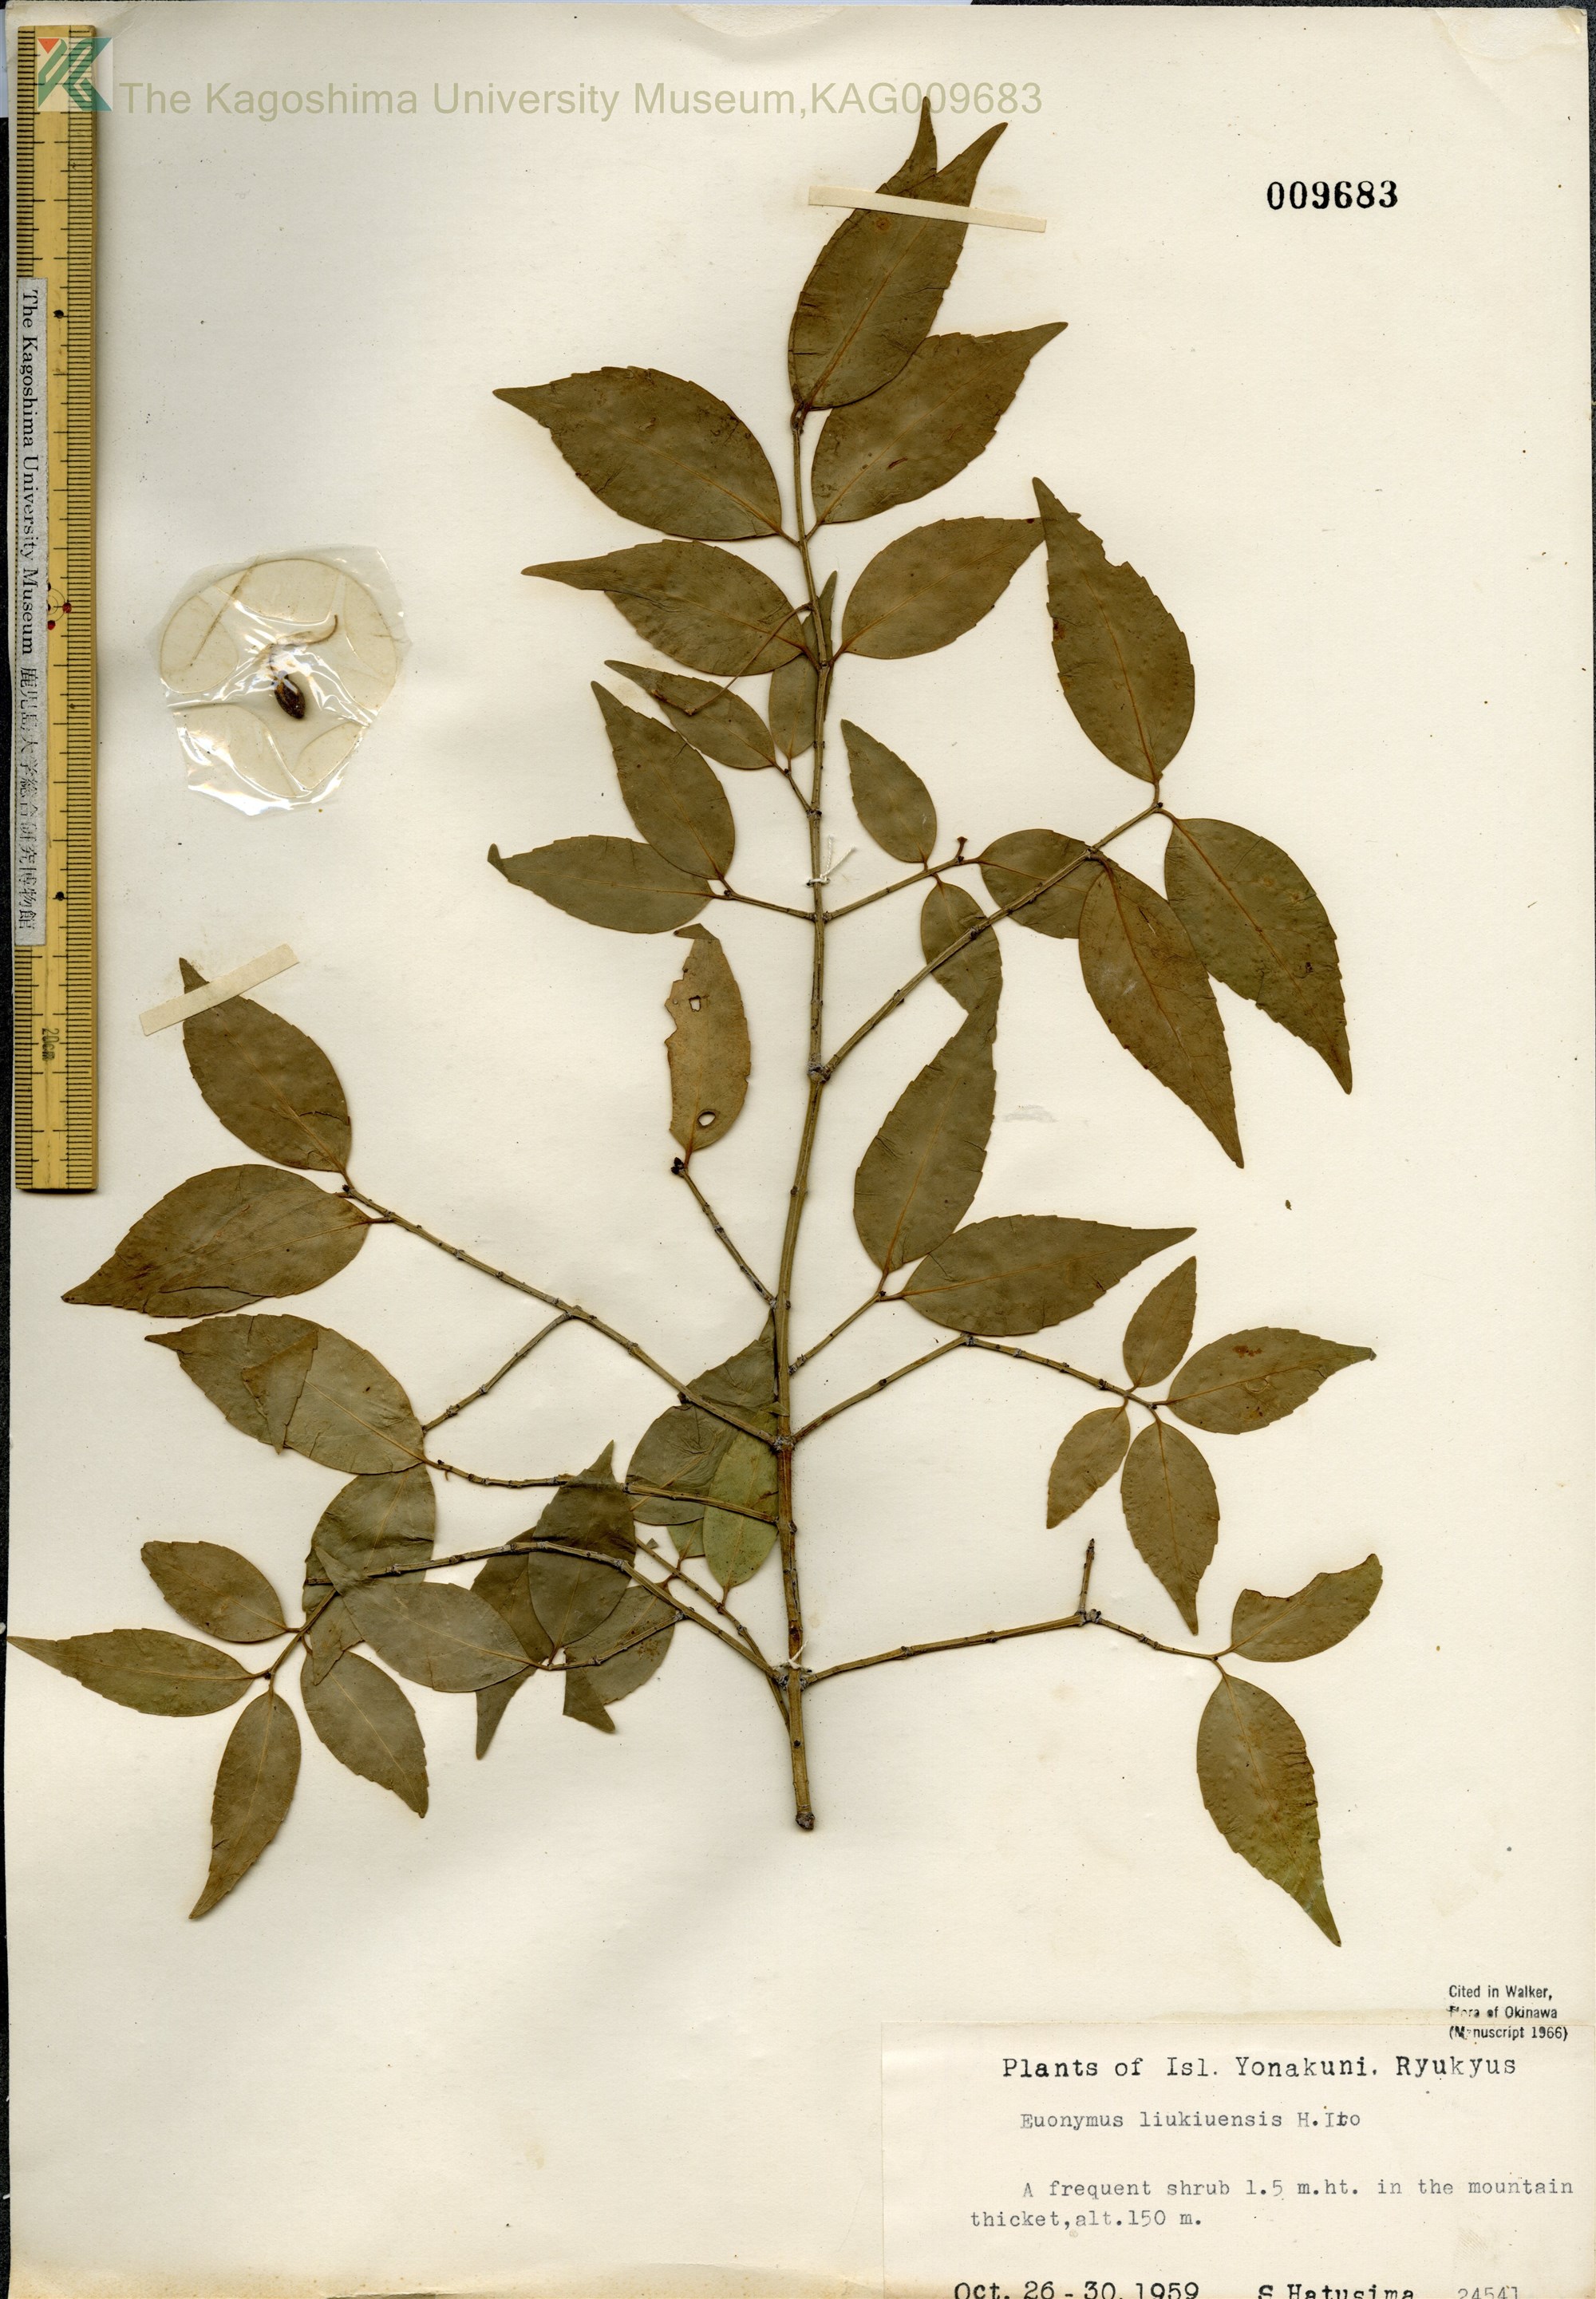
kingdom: Plantae
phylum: Tracheophyta
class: Magnoliopsida
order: Celastrales
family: Celastraceae
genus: Euonymus
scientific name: Euonymus lutchuensis
